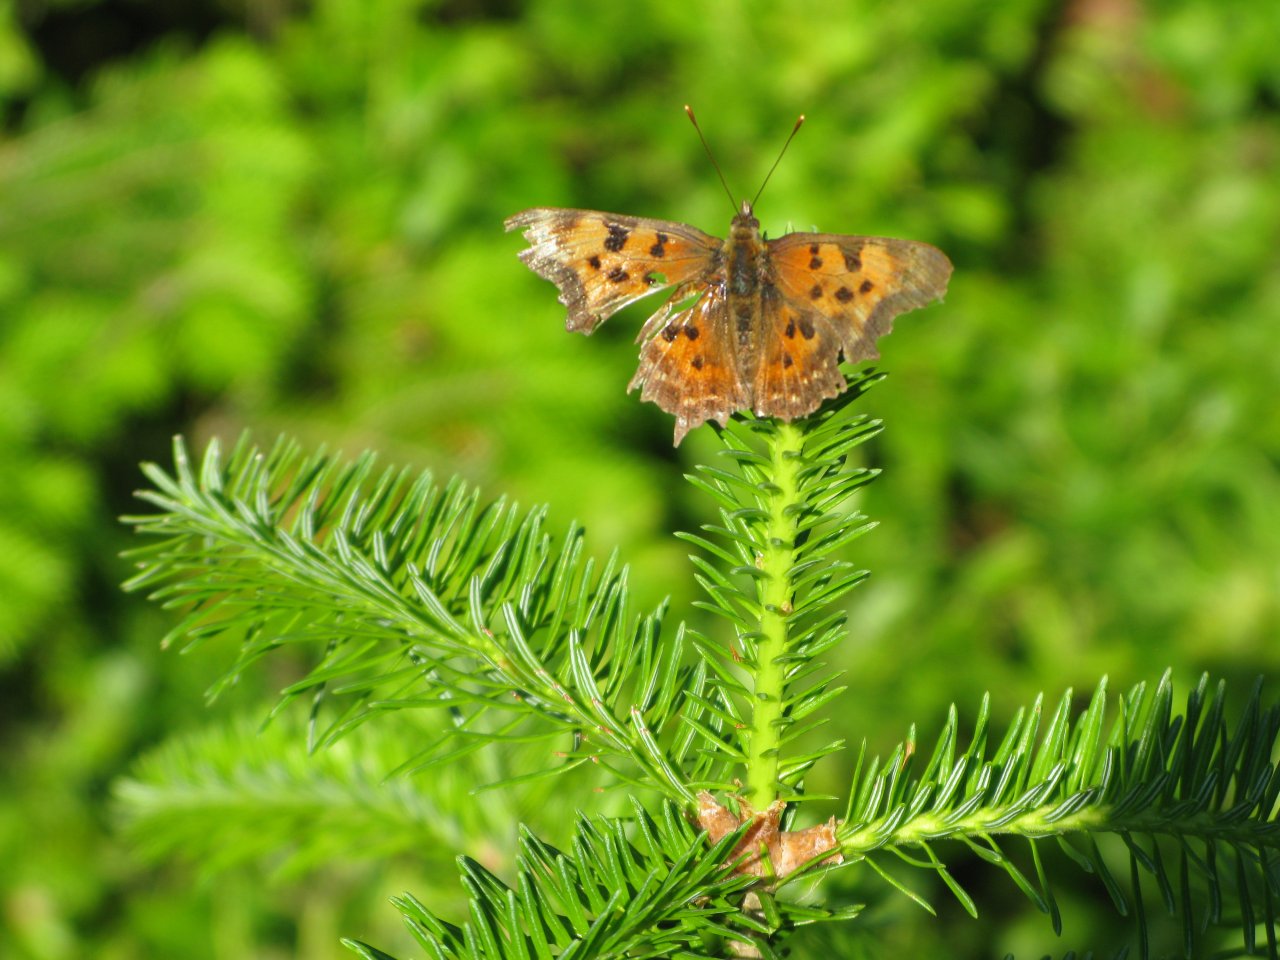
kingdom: Animalia
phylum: Arthropoda
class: Insecta
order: Lepidoptera
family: Nymphalidae
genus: Polygonia
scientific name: Polygonia faunus
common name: Green Comma
